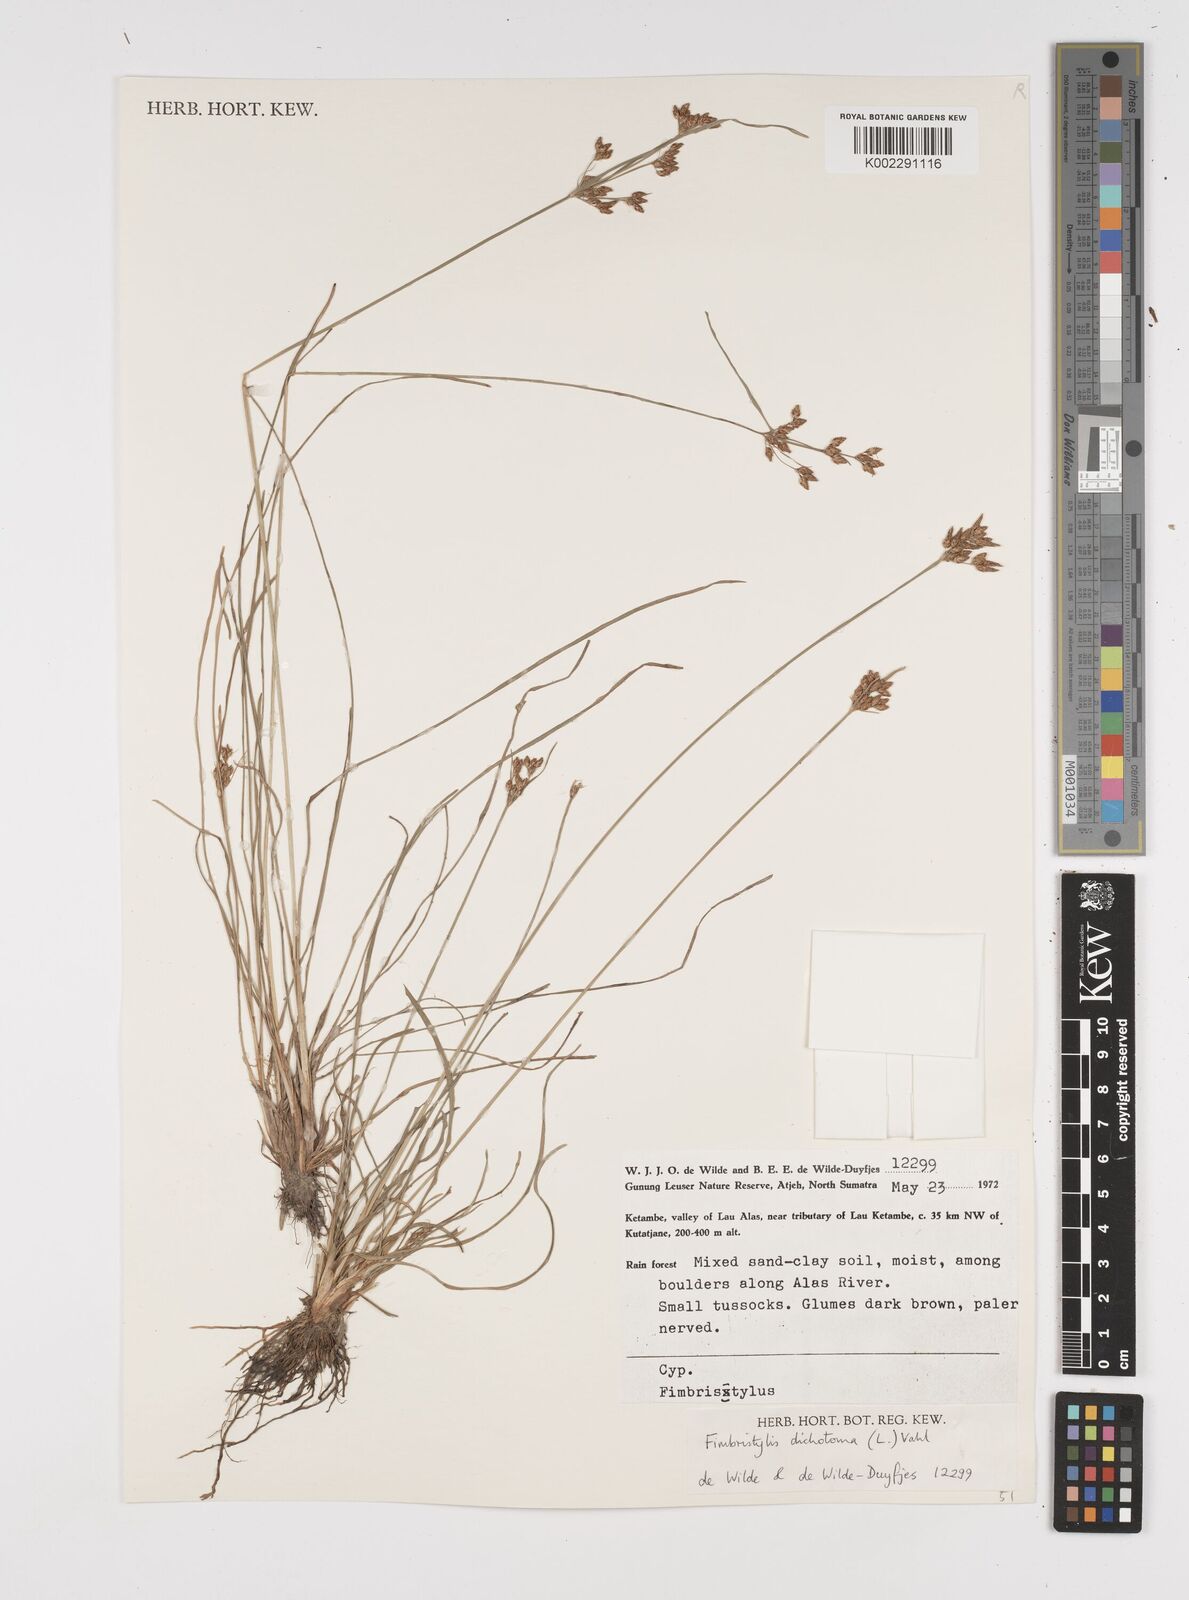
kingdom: Plantae
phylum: Tracheophyta
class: Liliopsida
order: Poales
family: Cyperaceae
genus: Fimbristylis
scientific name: Fimbristylis dichotoma
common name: Forked fimbry
